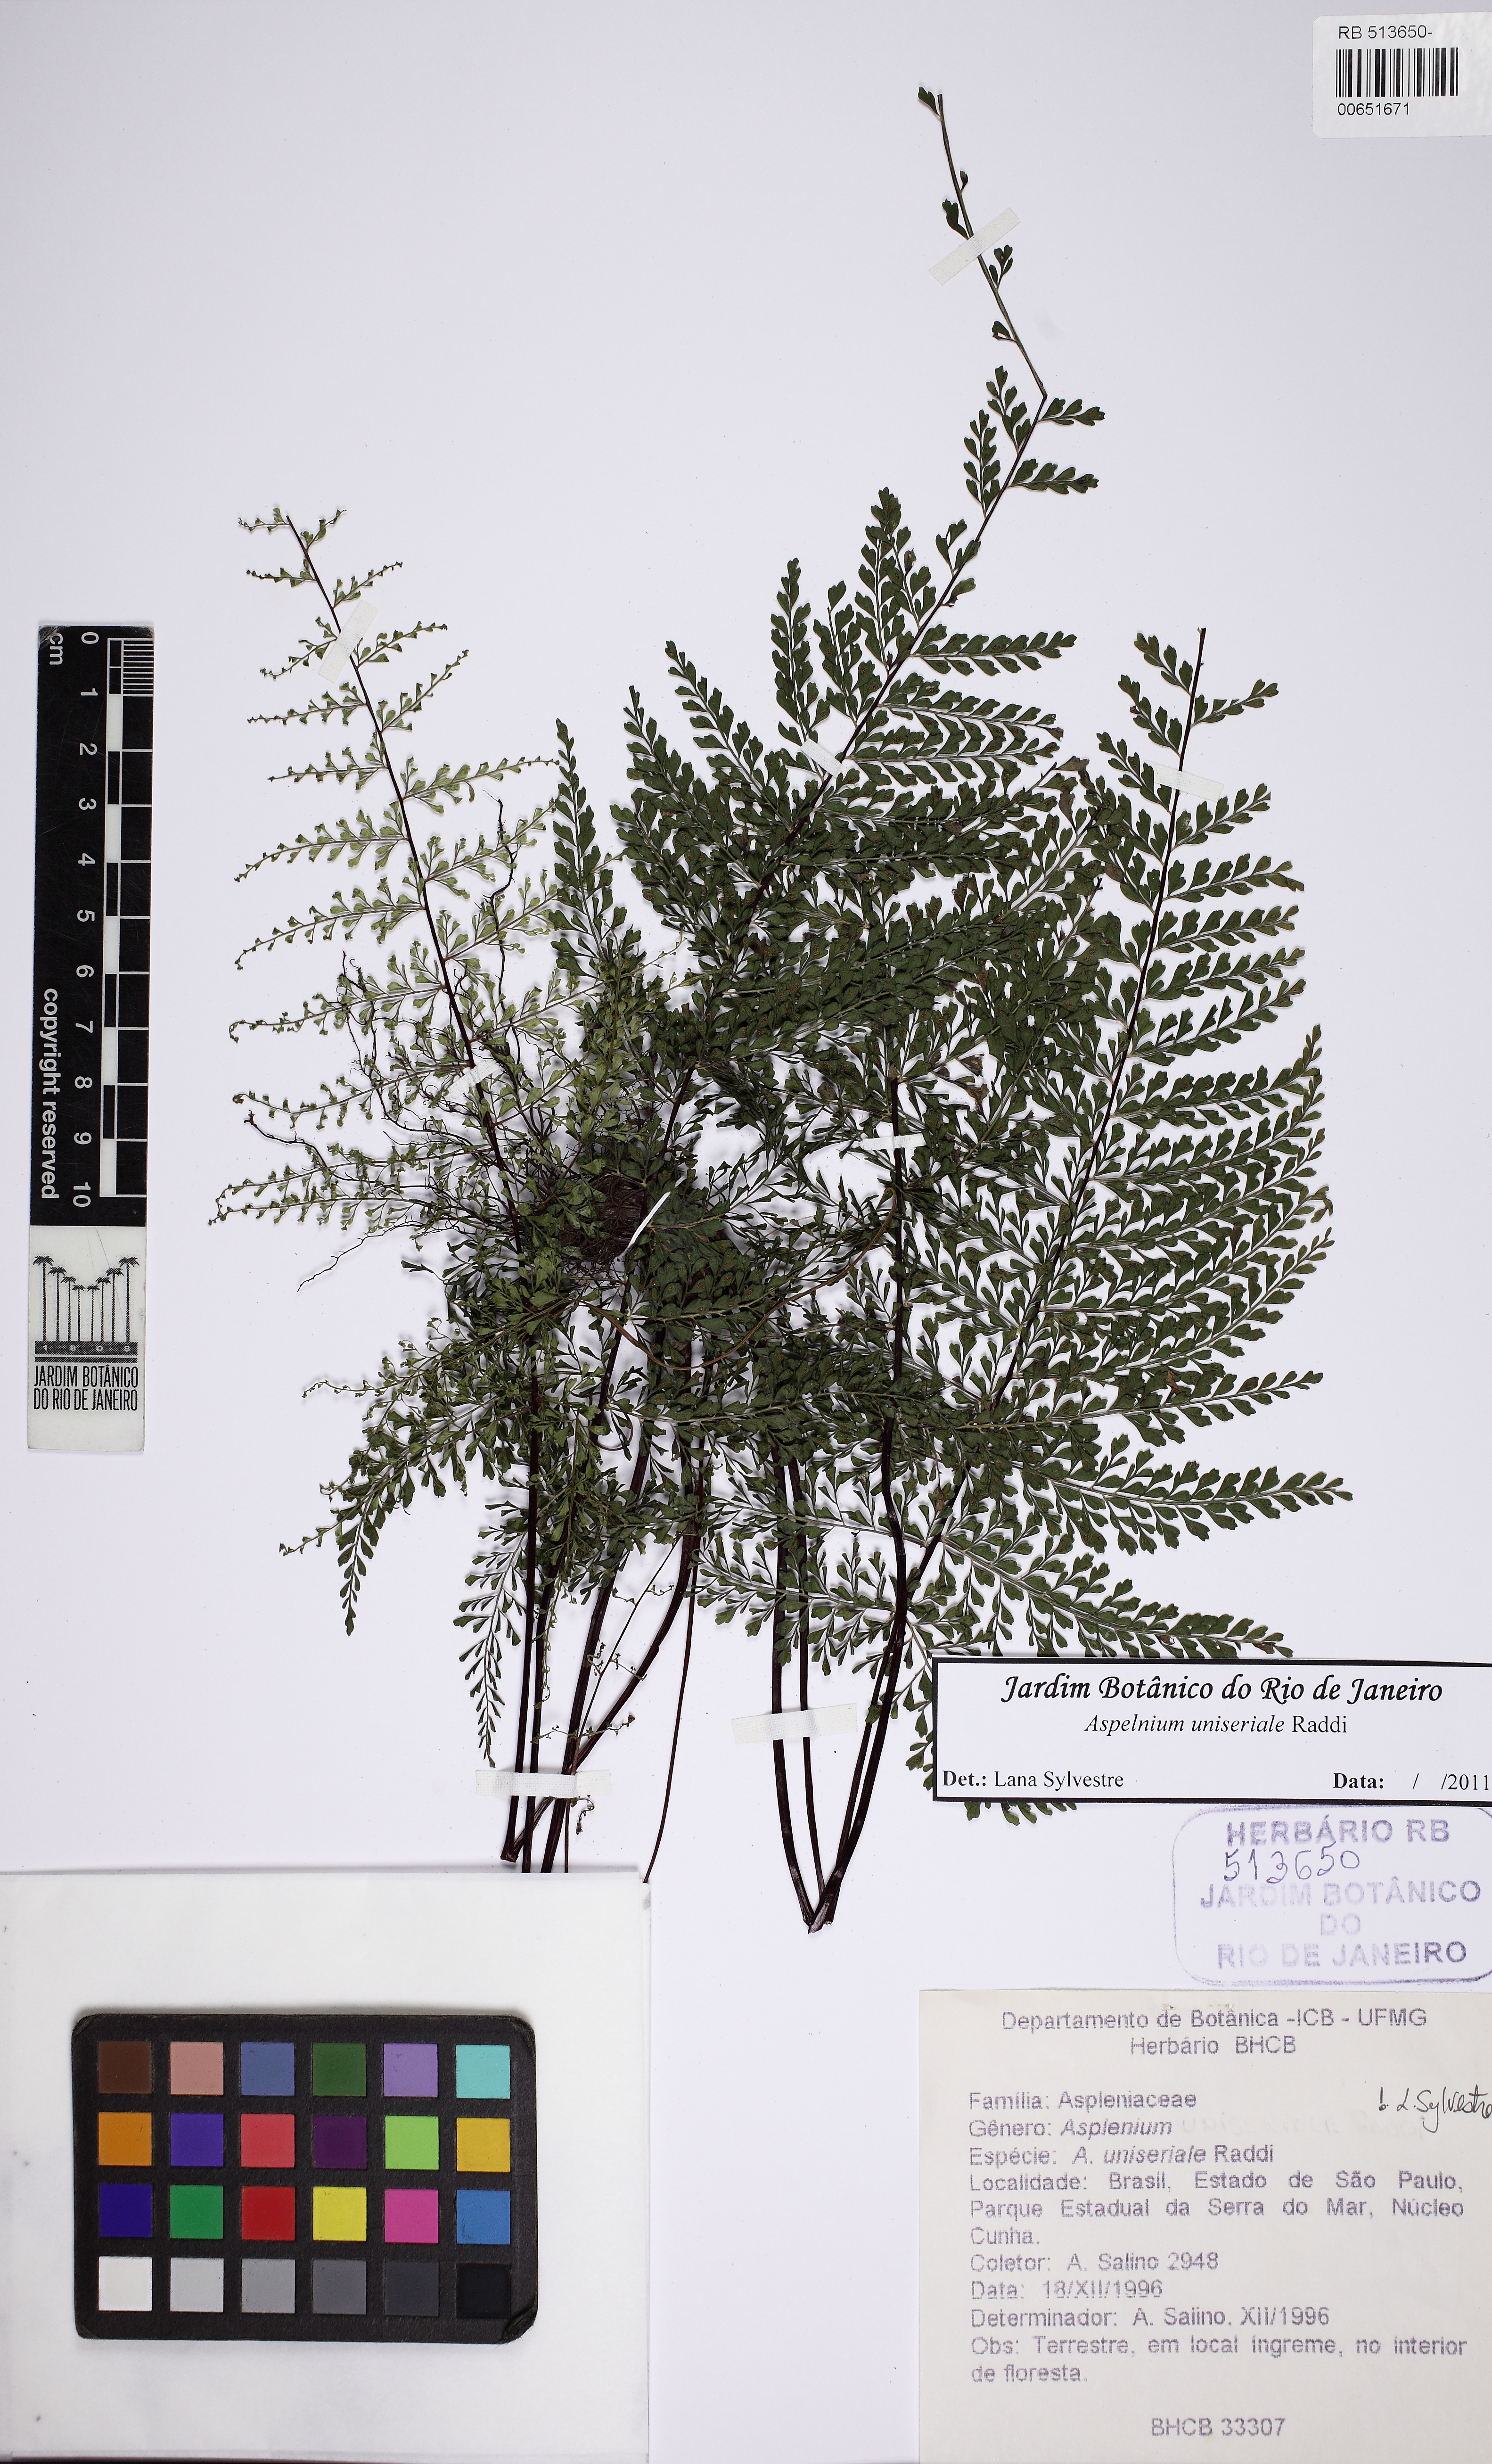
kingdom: Plantae
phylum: Tracheophyta
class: Polypodiopsida
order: Polypodiales
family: Aspleniaceae
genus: Asplenium
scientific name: Asplenium uniseriale
